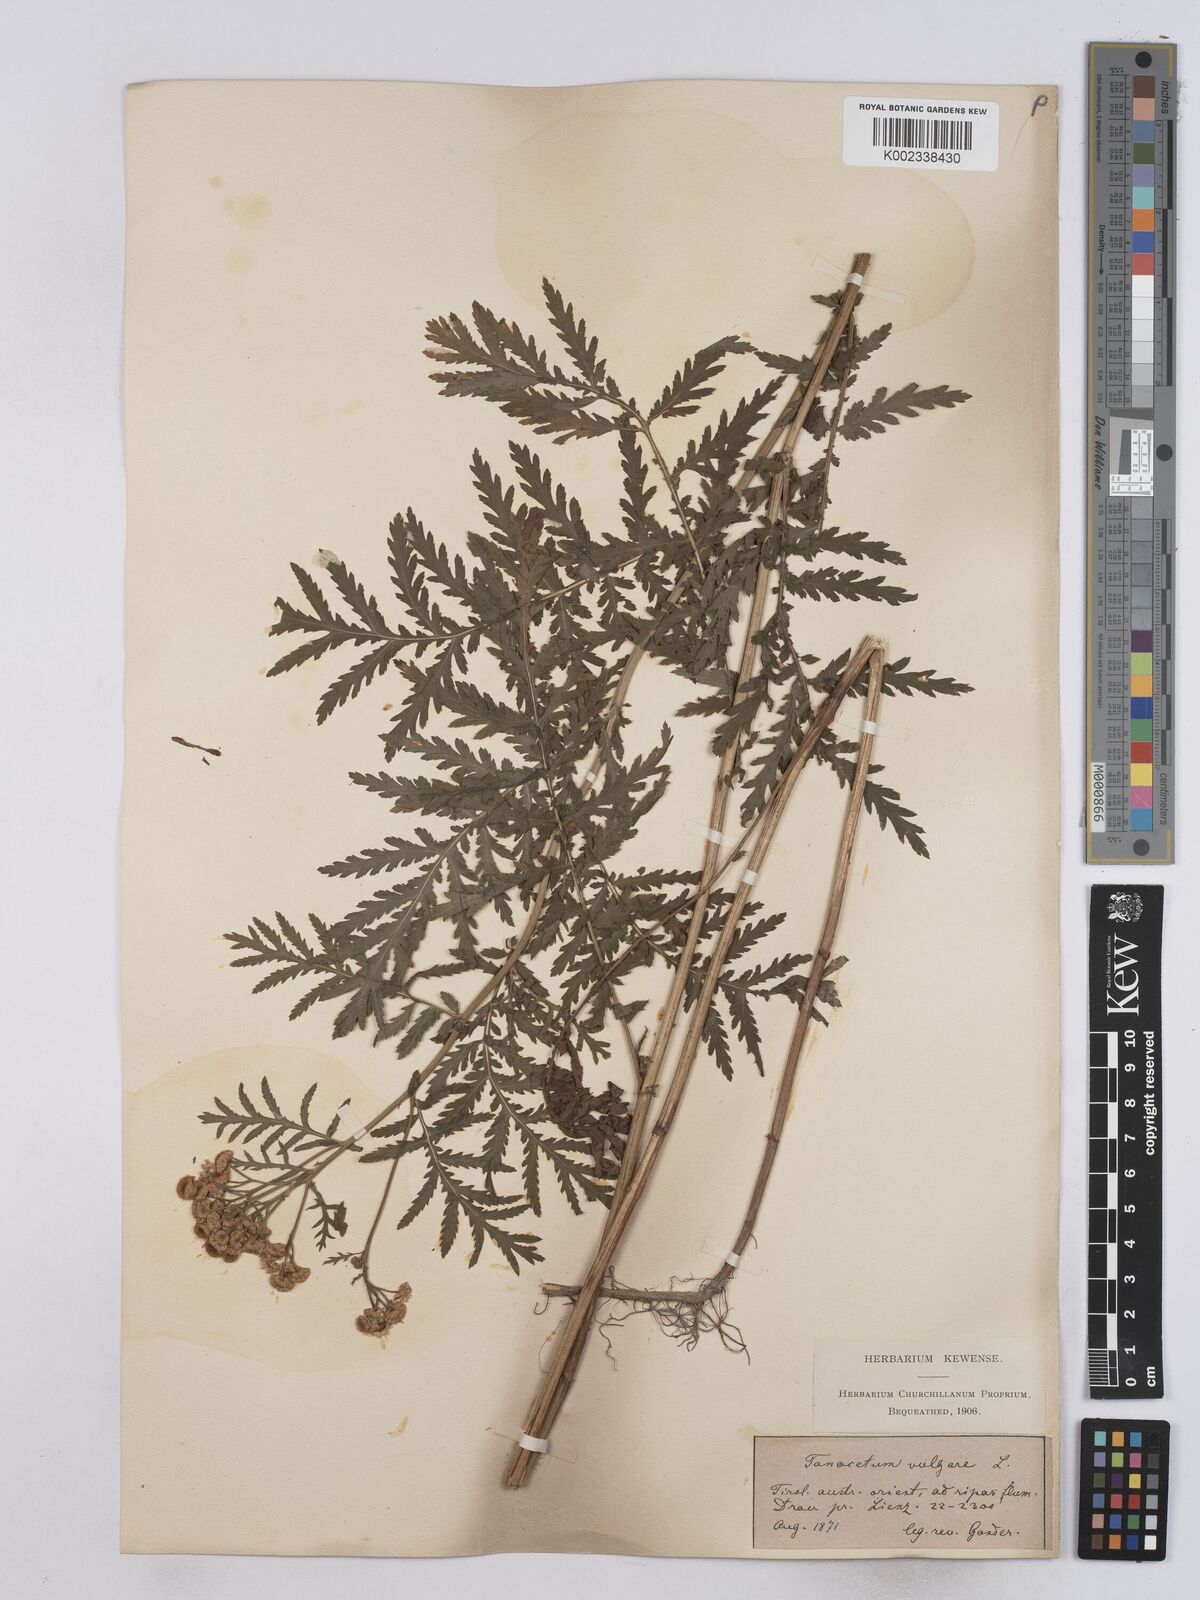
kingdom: Plantae
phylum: Tracheophyta
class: Magnoliopsida
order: Asterales
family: Asteraceae
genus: Tanacetum
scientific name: Tanacetum vulgare
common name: Common tansy
